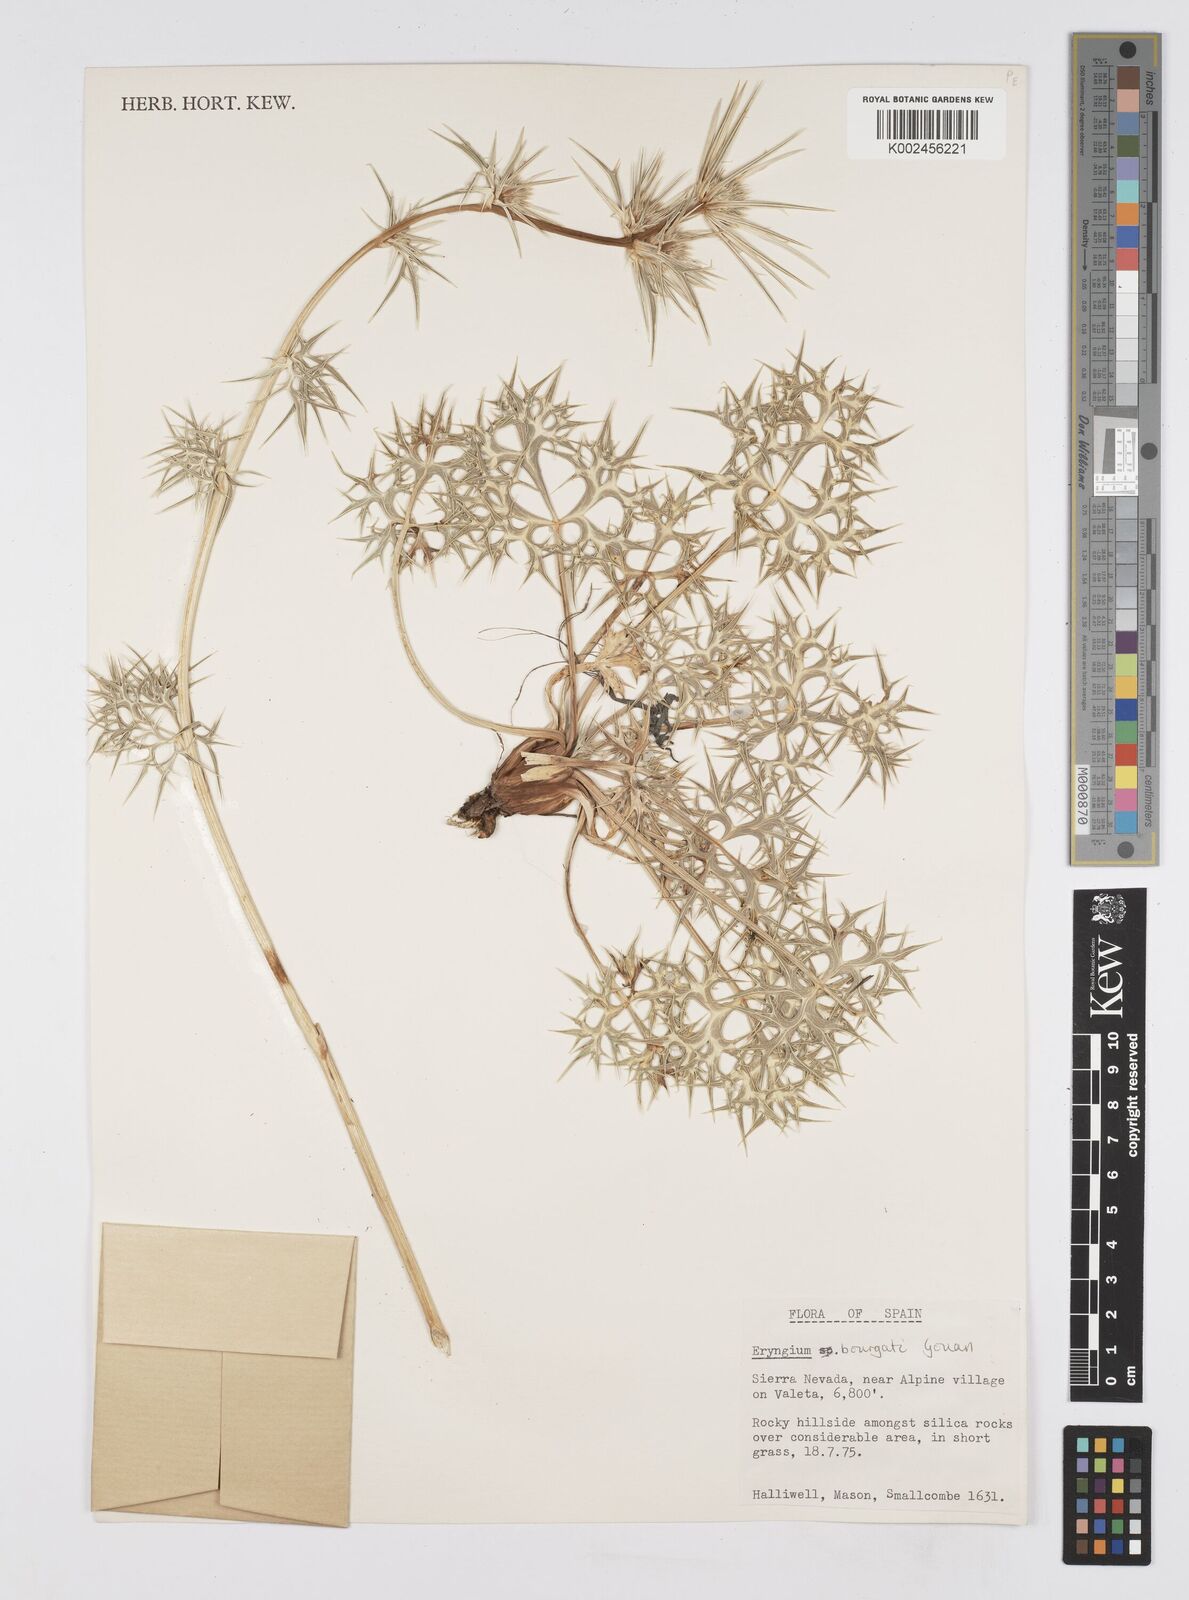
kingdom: Plantae
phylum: Tracheophyta
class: Magnoliopsida
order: Apiales
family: Apiaceae
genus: Eryngium
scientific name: Eryngium bourgatii
